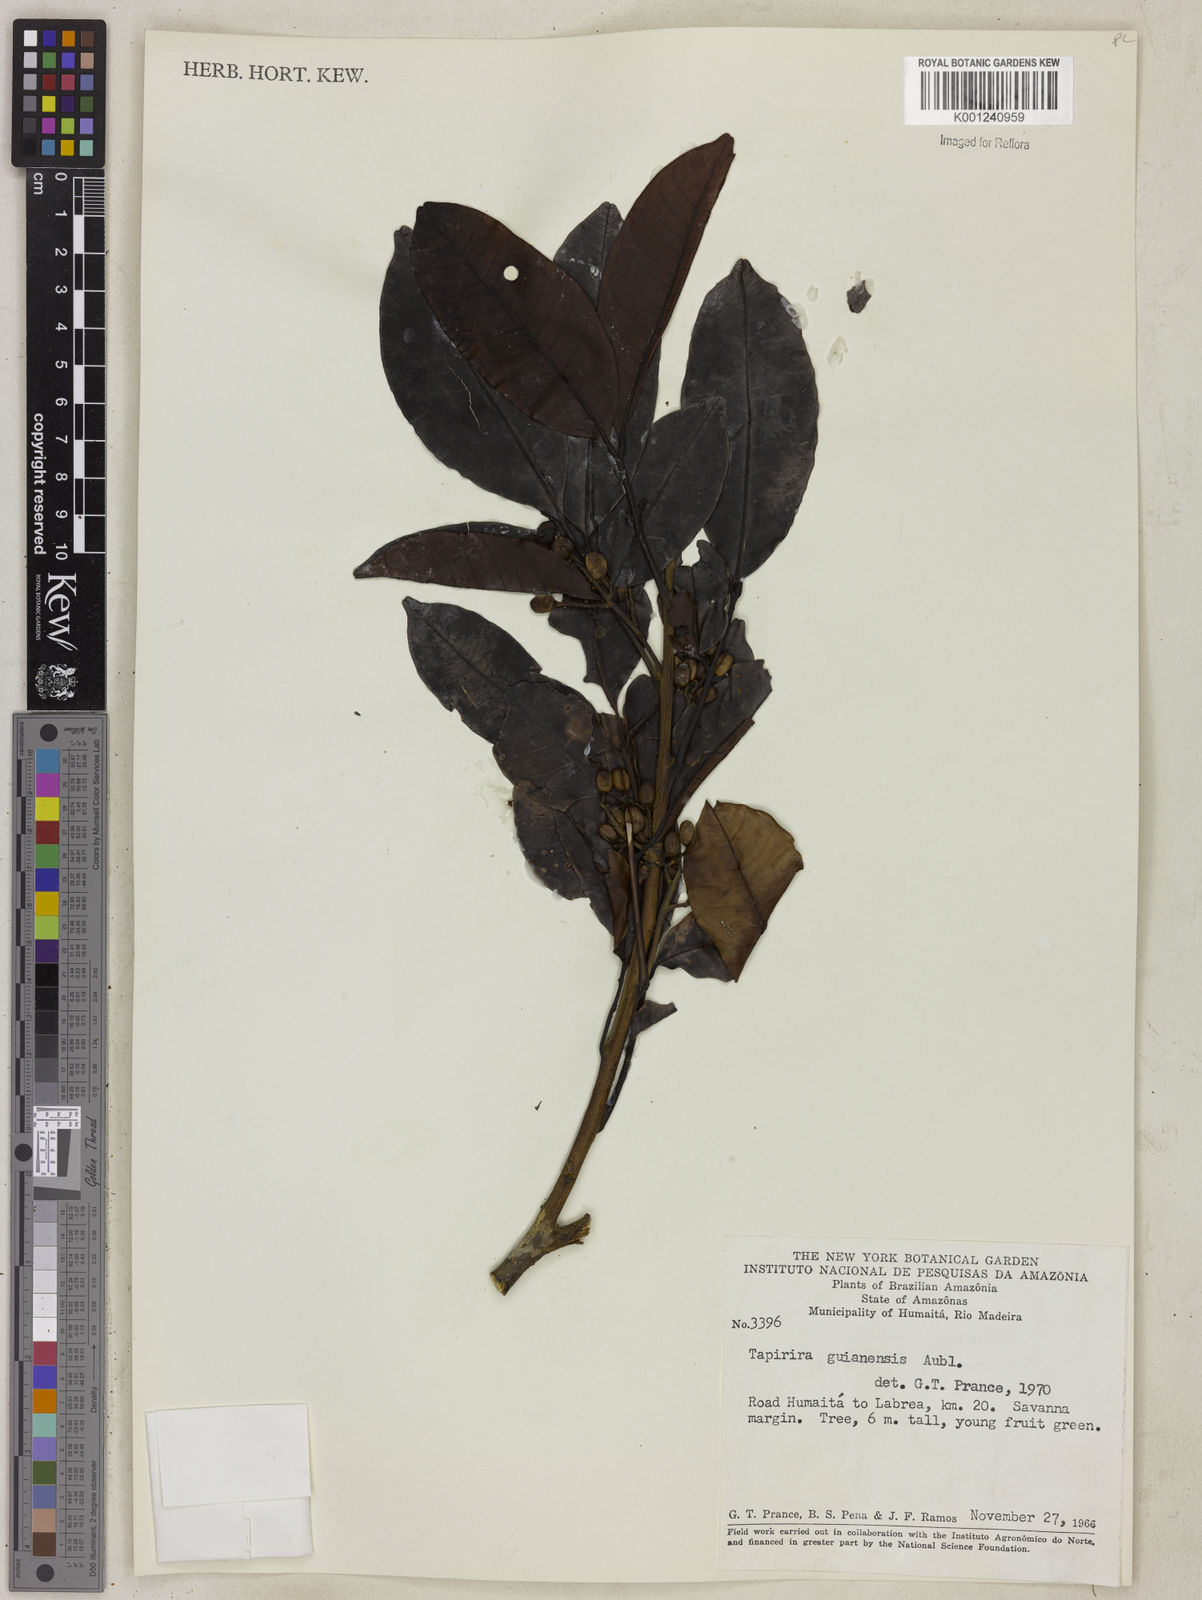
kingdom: Plantae
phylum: Tracheophyta
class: Magnoliopsida
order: Sapindales
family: Anacardiaceae
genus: Tapirira
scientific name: Tapirira guianensis
